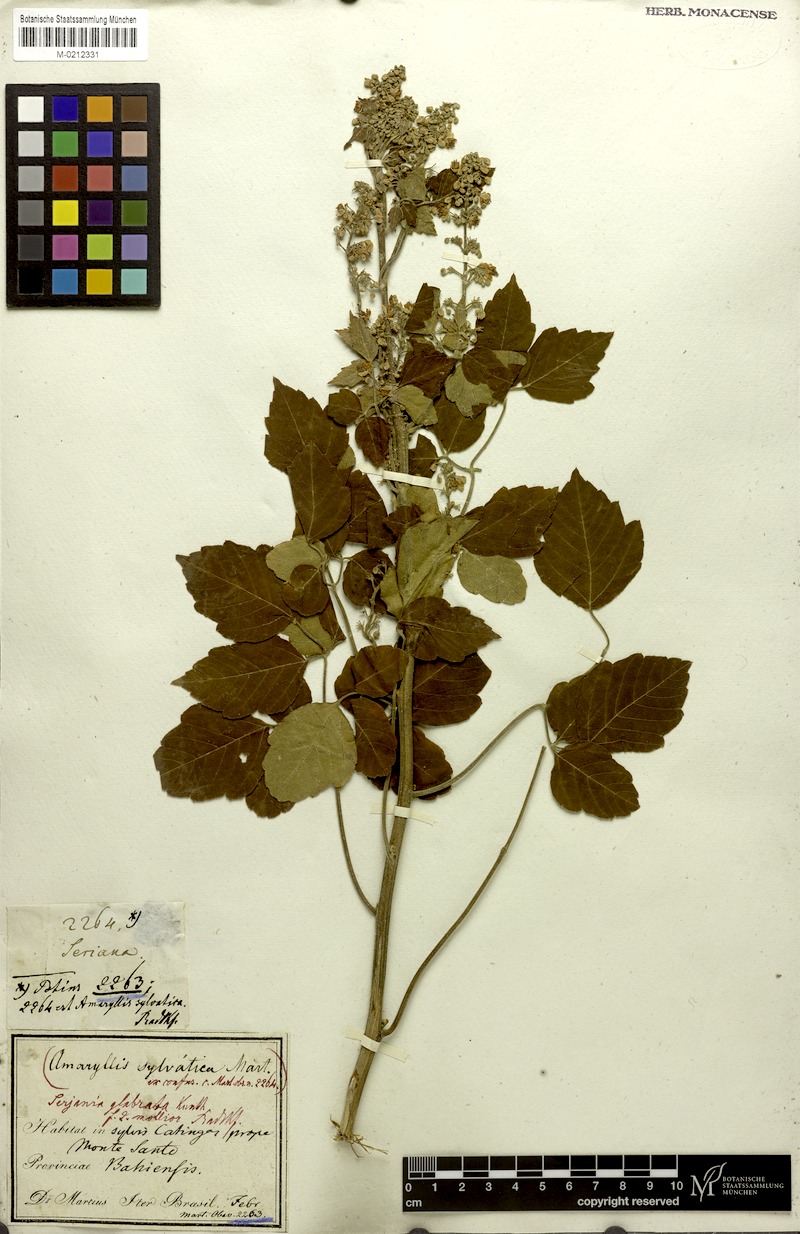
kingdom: Plantae
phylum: Tracheophyta
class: Magnoliopsida
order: Sapindales
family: Sapindaceae
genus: Serjania
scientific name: Serjania glabrata
